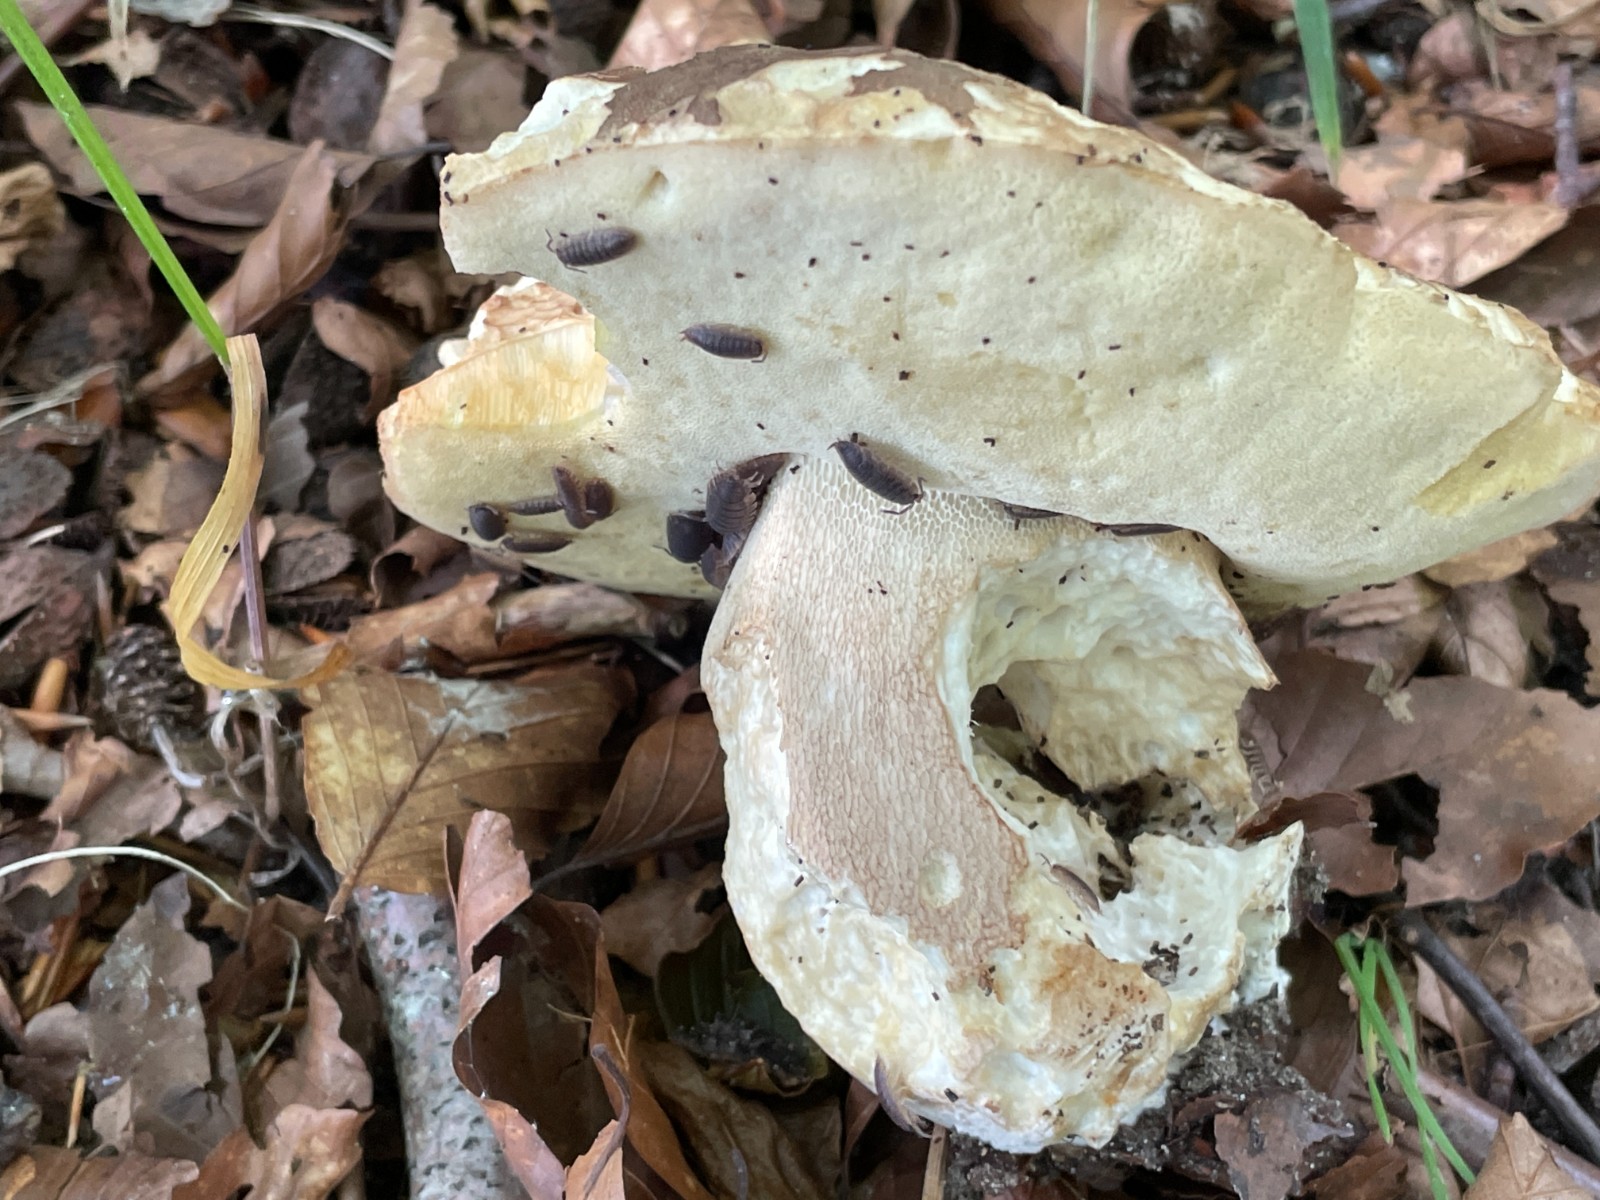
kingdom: Fungi
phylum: Basidiomycota
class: Agaricomycetes
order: Boletales
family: Boletaceae
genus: Boletus
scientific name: Boletus edulis
